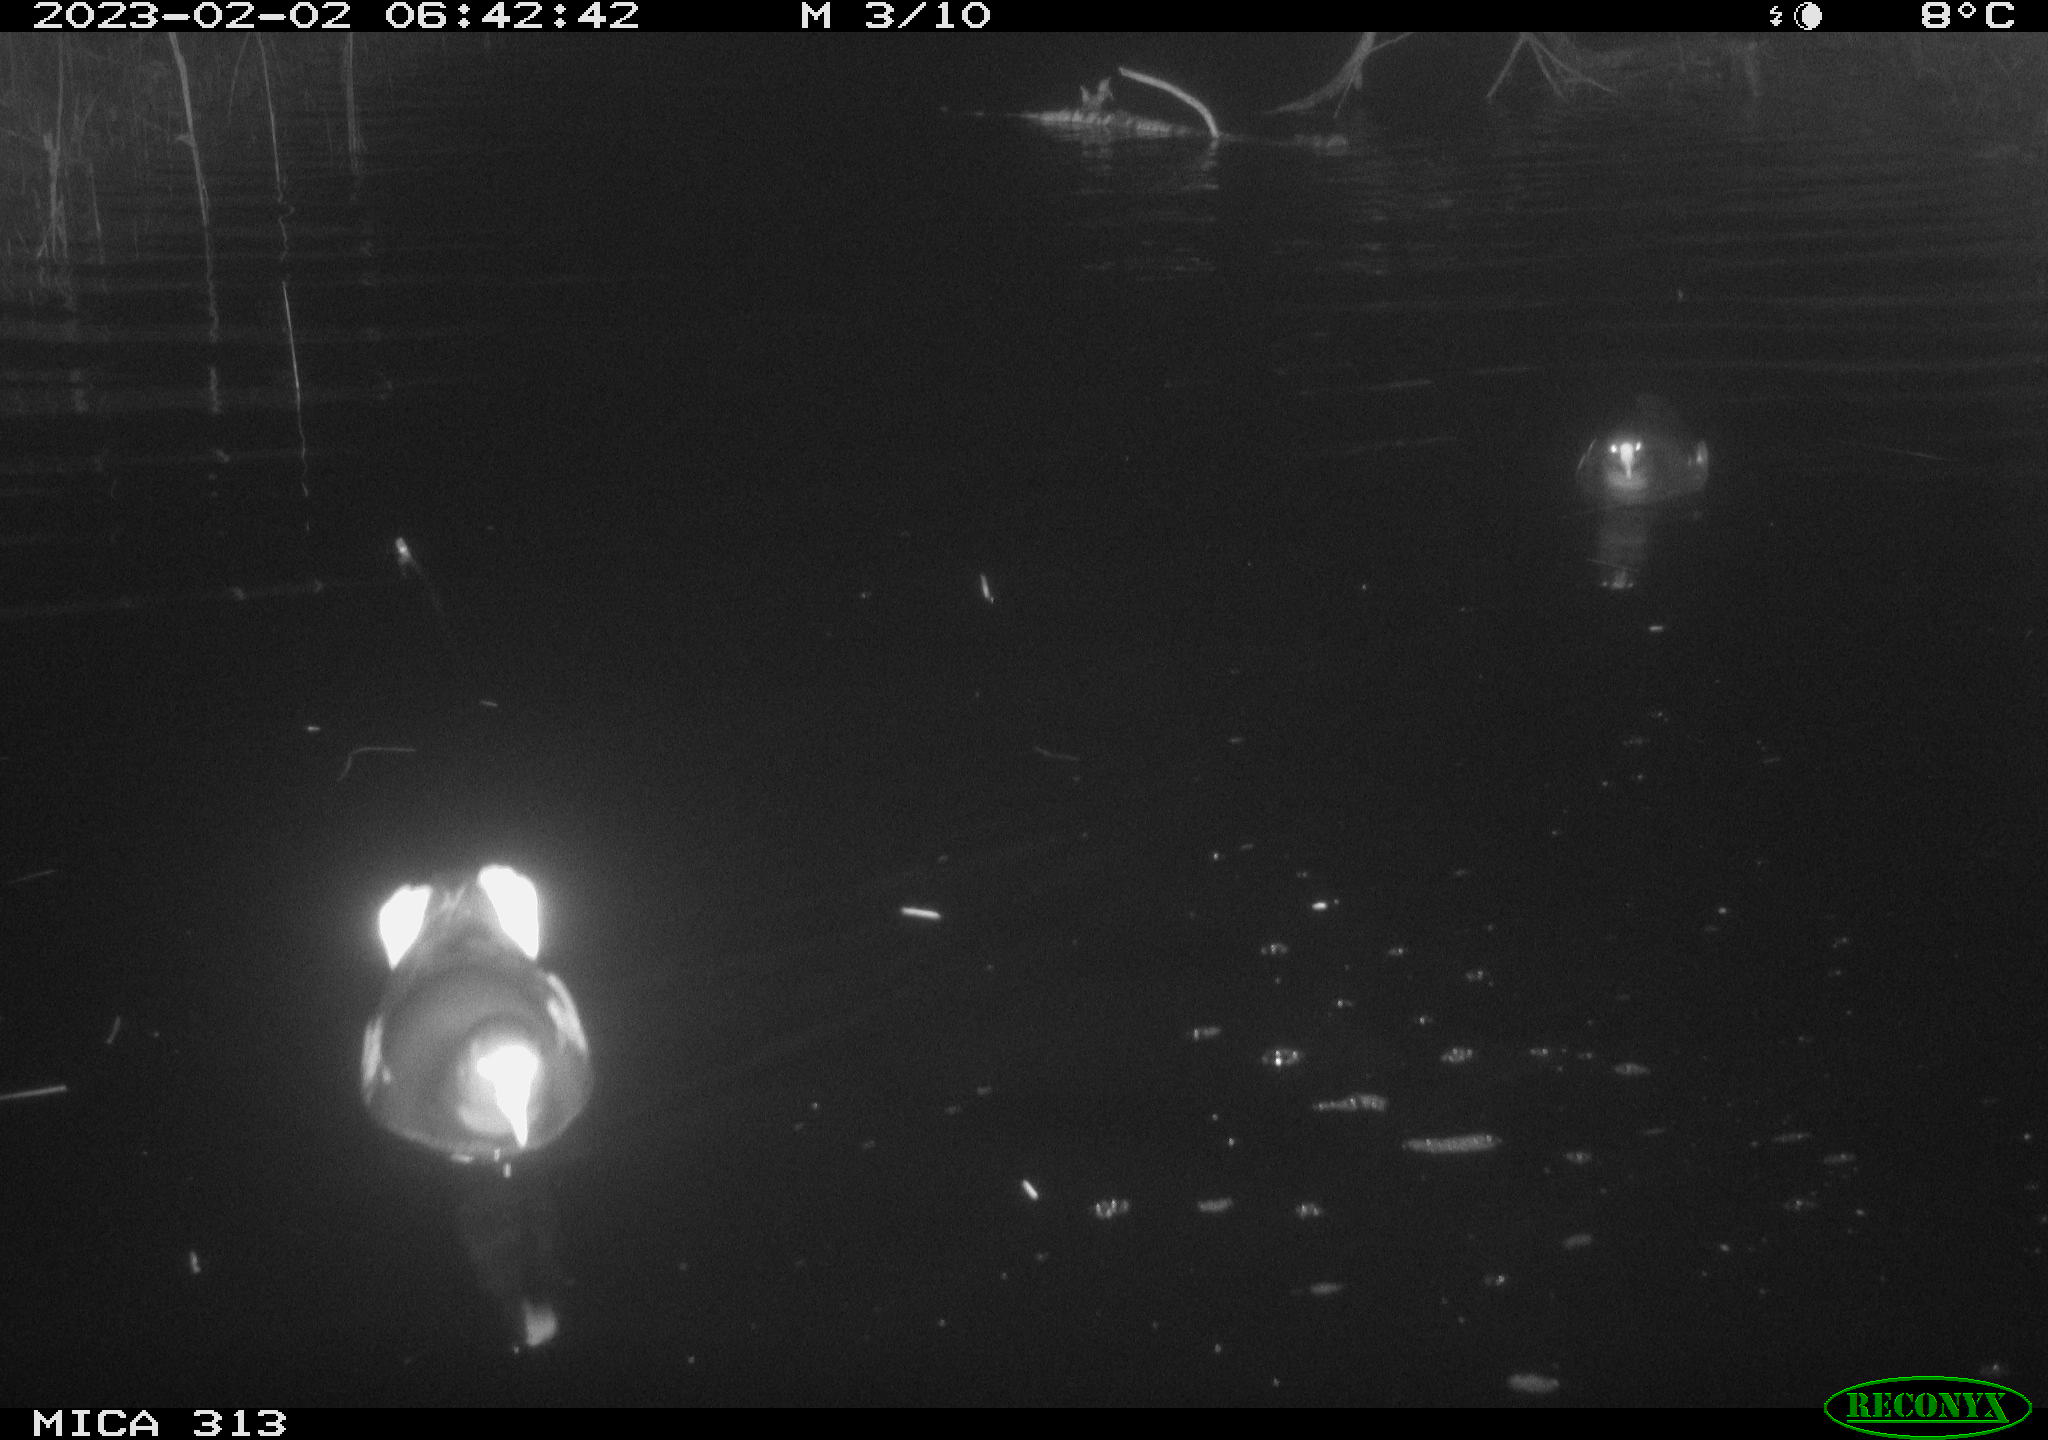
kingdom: Animalia
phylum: Chordata
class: Aves
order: Gruiformes
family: Rallidae
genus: Fulica
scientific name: Fulica atra
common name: Eurasian coot
